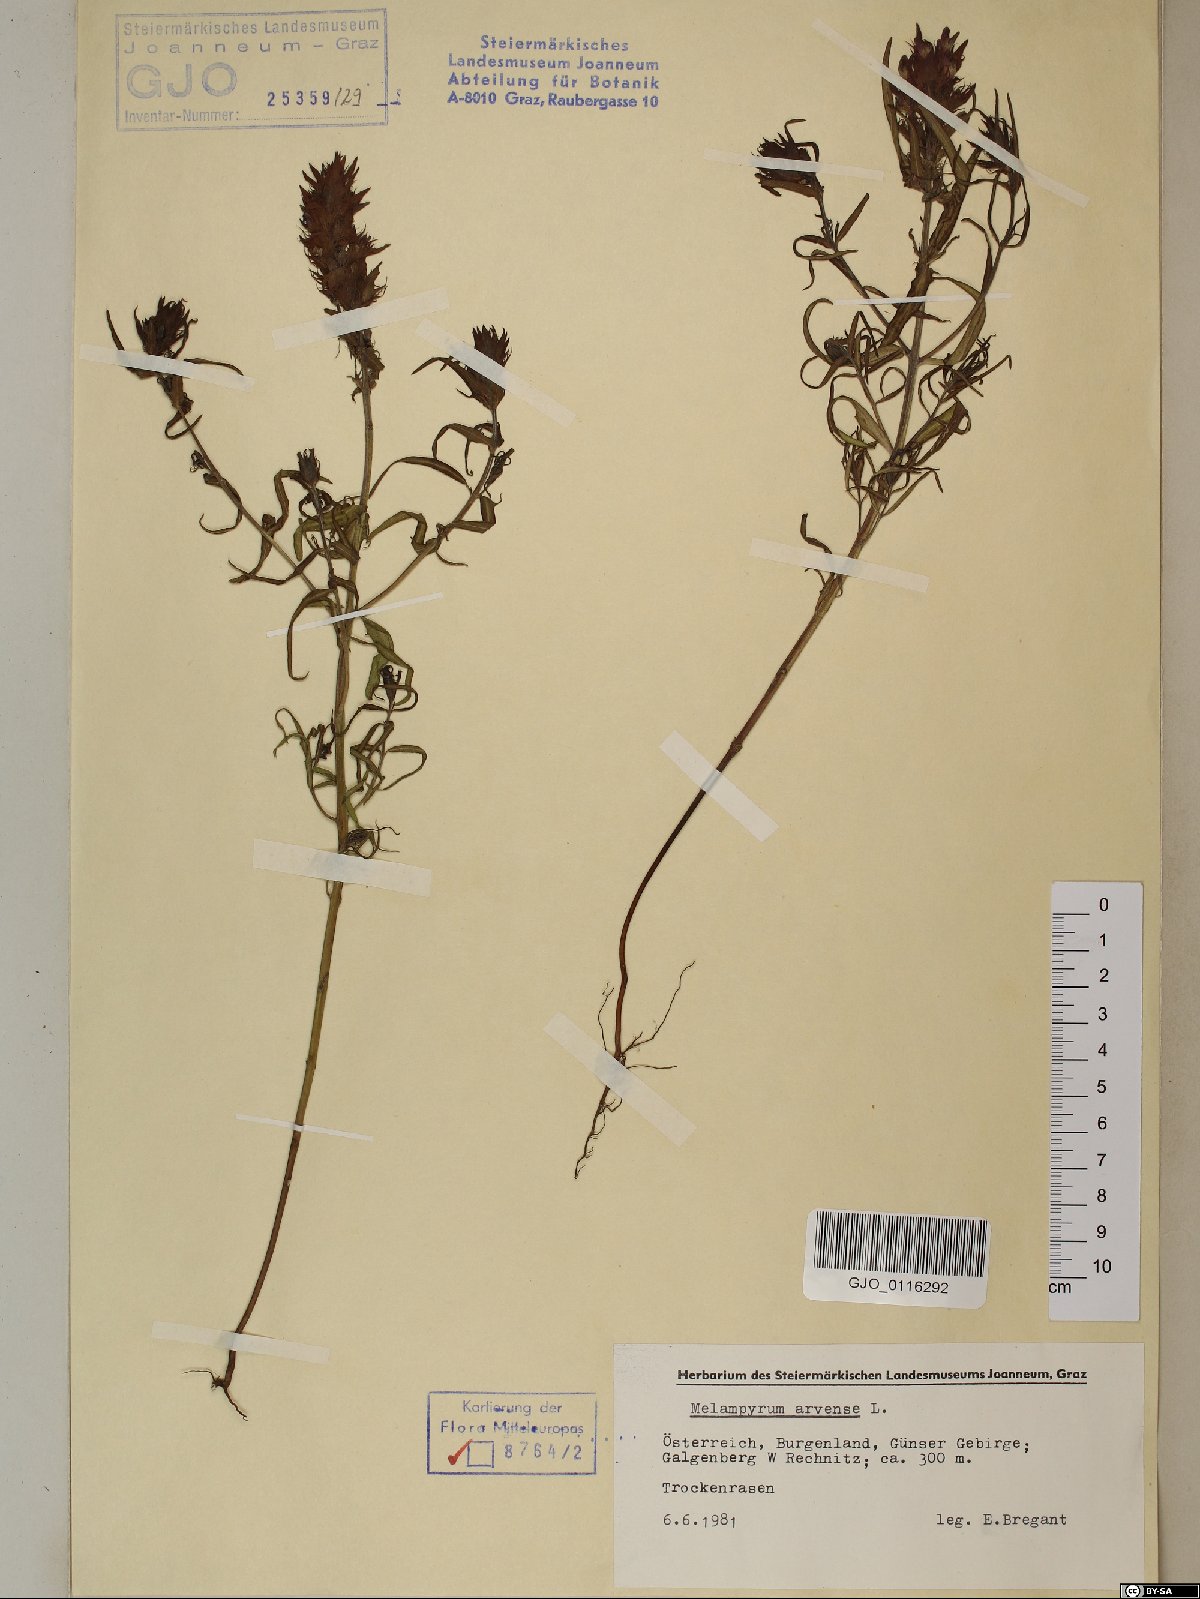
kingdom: Plantae
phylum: Tracheophyta
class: Magnoliopsida
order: Lamiales
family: Orobanchaceae
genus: Melampyrum
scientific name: Melampyrum arvense
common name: Field cow-wheat
